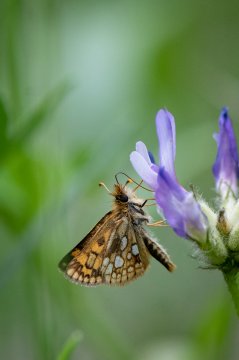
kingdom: Animalia
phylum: Arthropoda
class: Insecta
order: Lepidoptera
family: Hesperiidae
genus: Carterocephalus
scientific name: Carterocephalus palaemon
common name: Chequered Skipper
